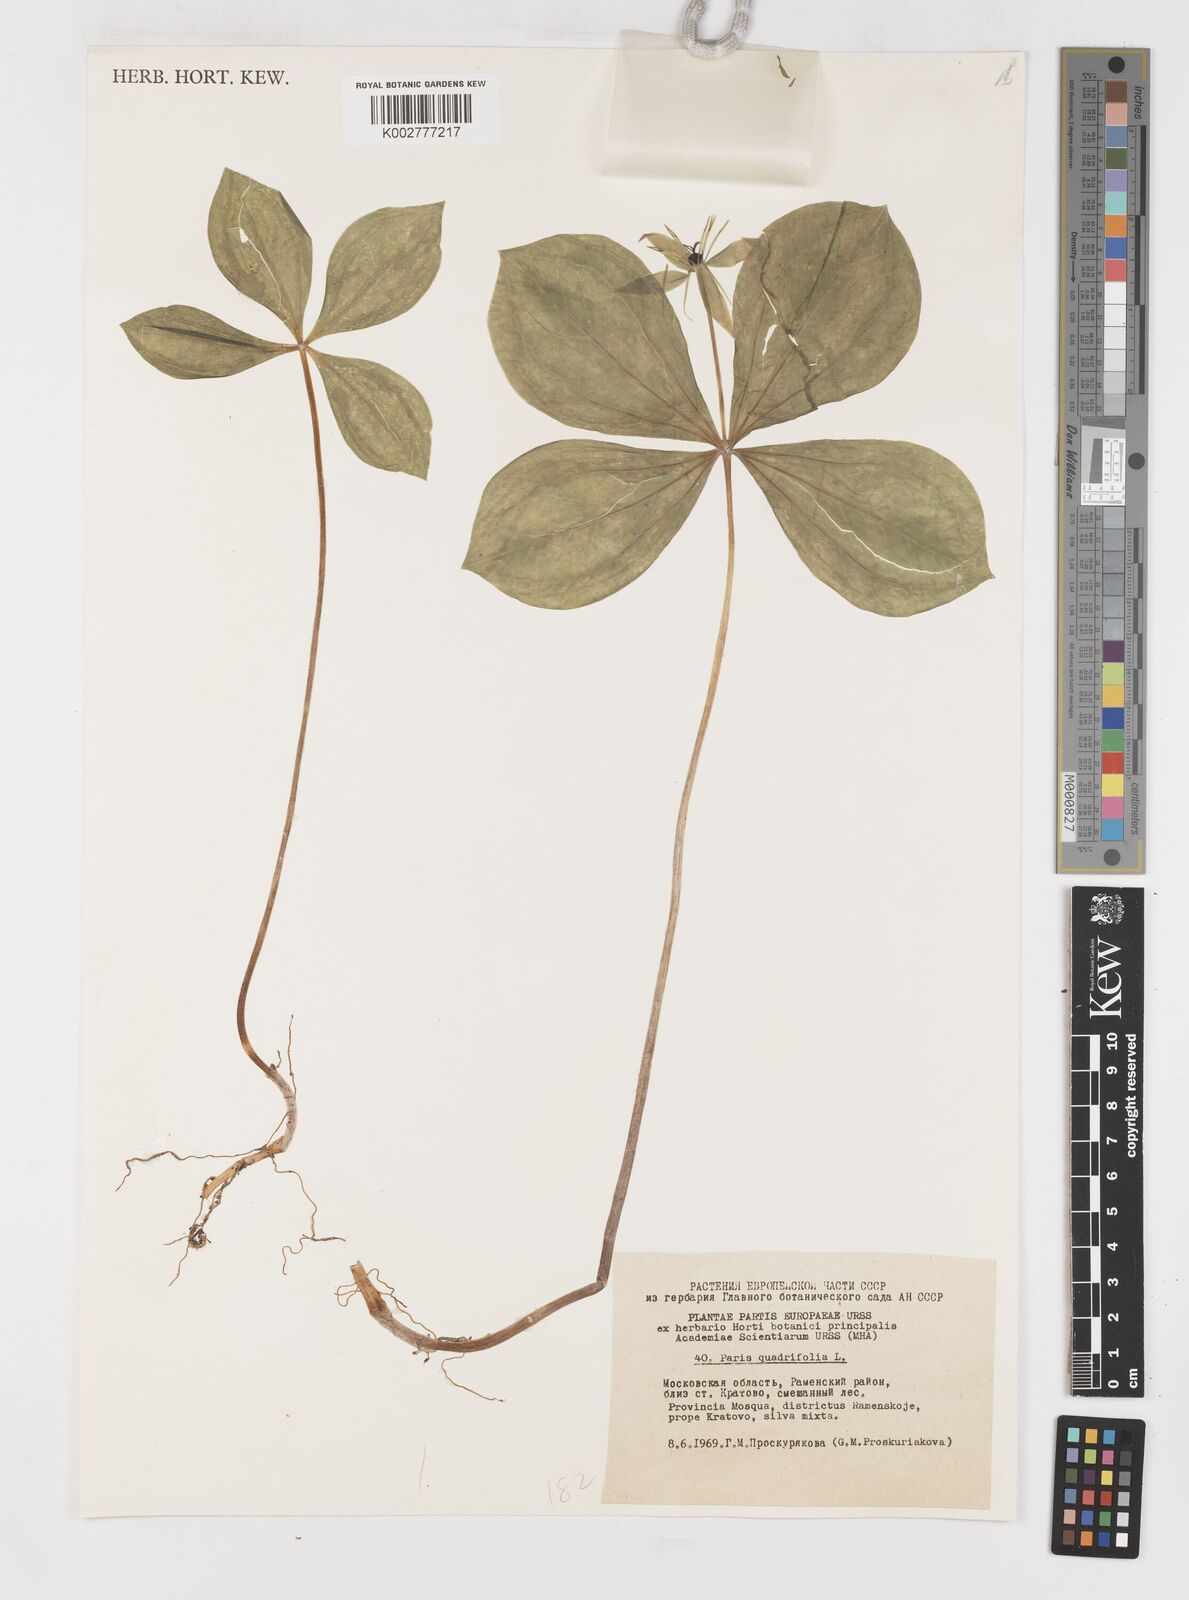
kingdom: Plantae
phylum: Tracheophyta
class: Liliopsida
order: Liliales
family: Melanthiaceae
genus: Paris
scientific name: Paris quadrifolia
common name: Herb-paris
